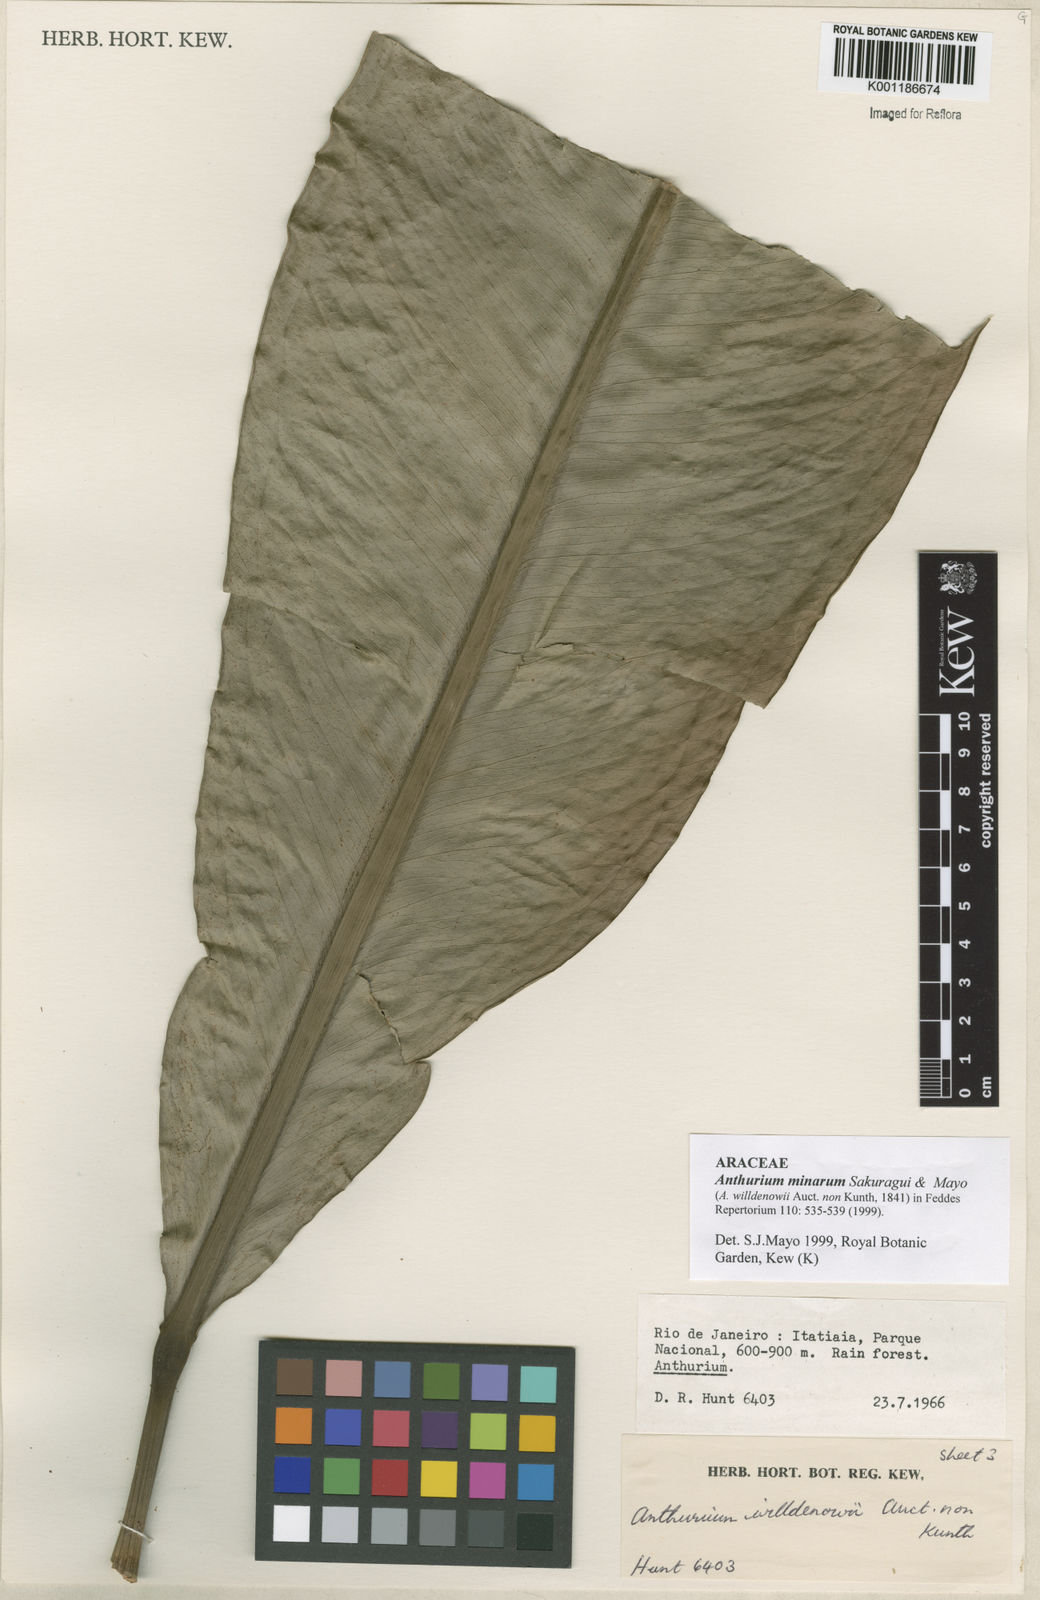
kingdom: Plantae
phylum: Tracheophyta
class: Liliopsida
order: Alismatales
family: Araceae
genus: Anthurium
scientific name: Anthurium minarum
